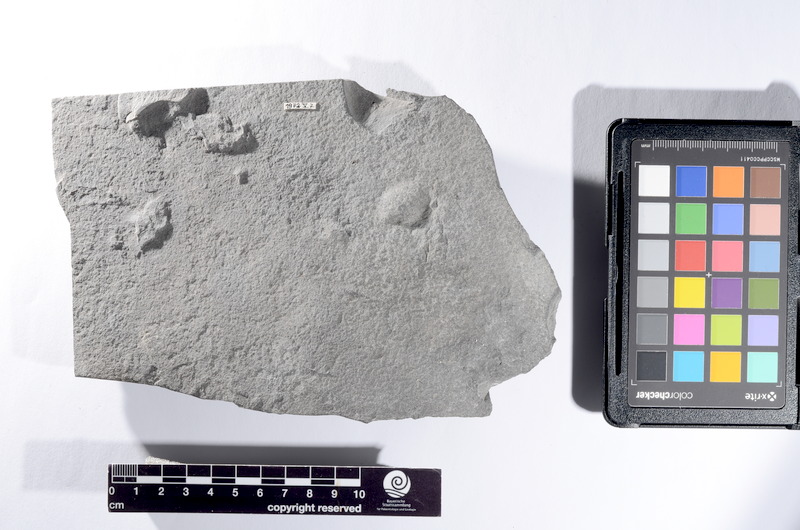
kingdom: Animalia
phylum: Chordata
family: Dapediidae
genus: Dapedium
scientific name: Dapedium
